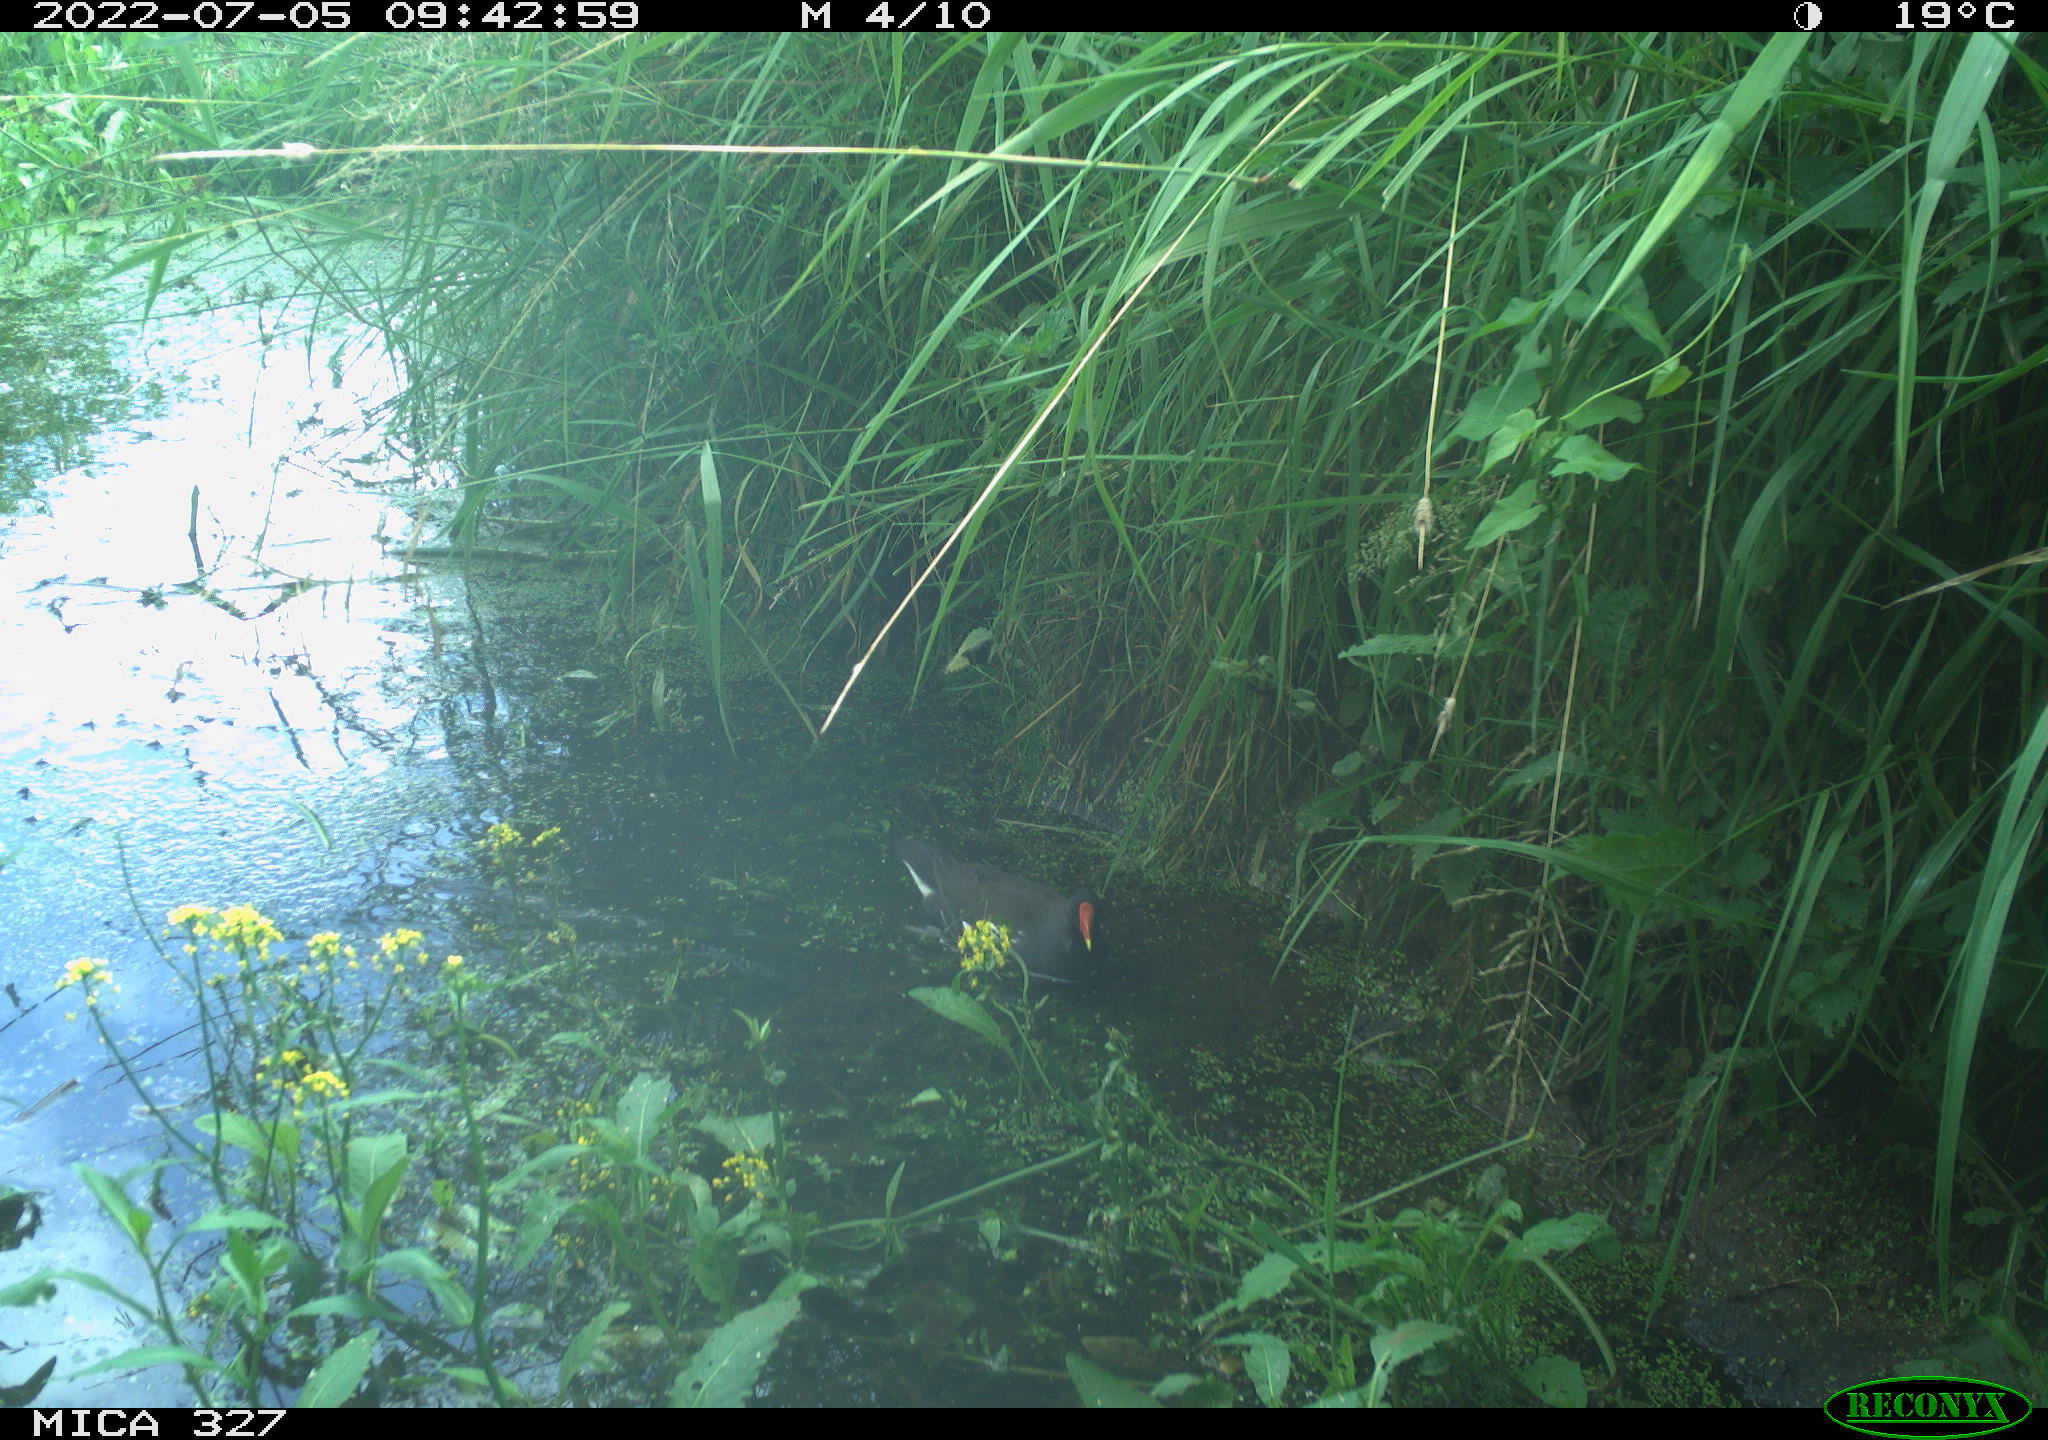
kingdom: Animalia
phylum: Chordata
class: Aves
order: Gruiformes
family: Rallidae
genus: Gallinula
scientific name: Gallinula chloropus
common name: Common moorhen
